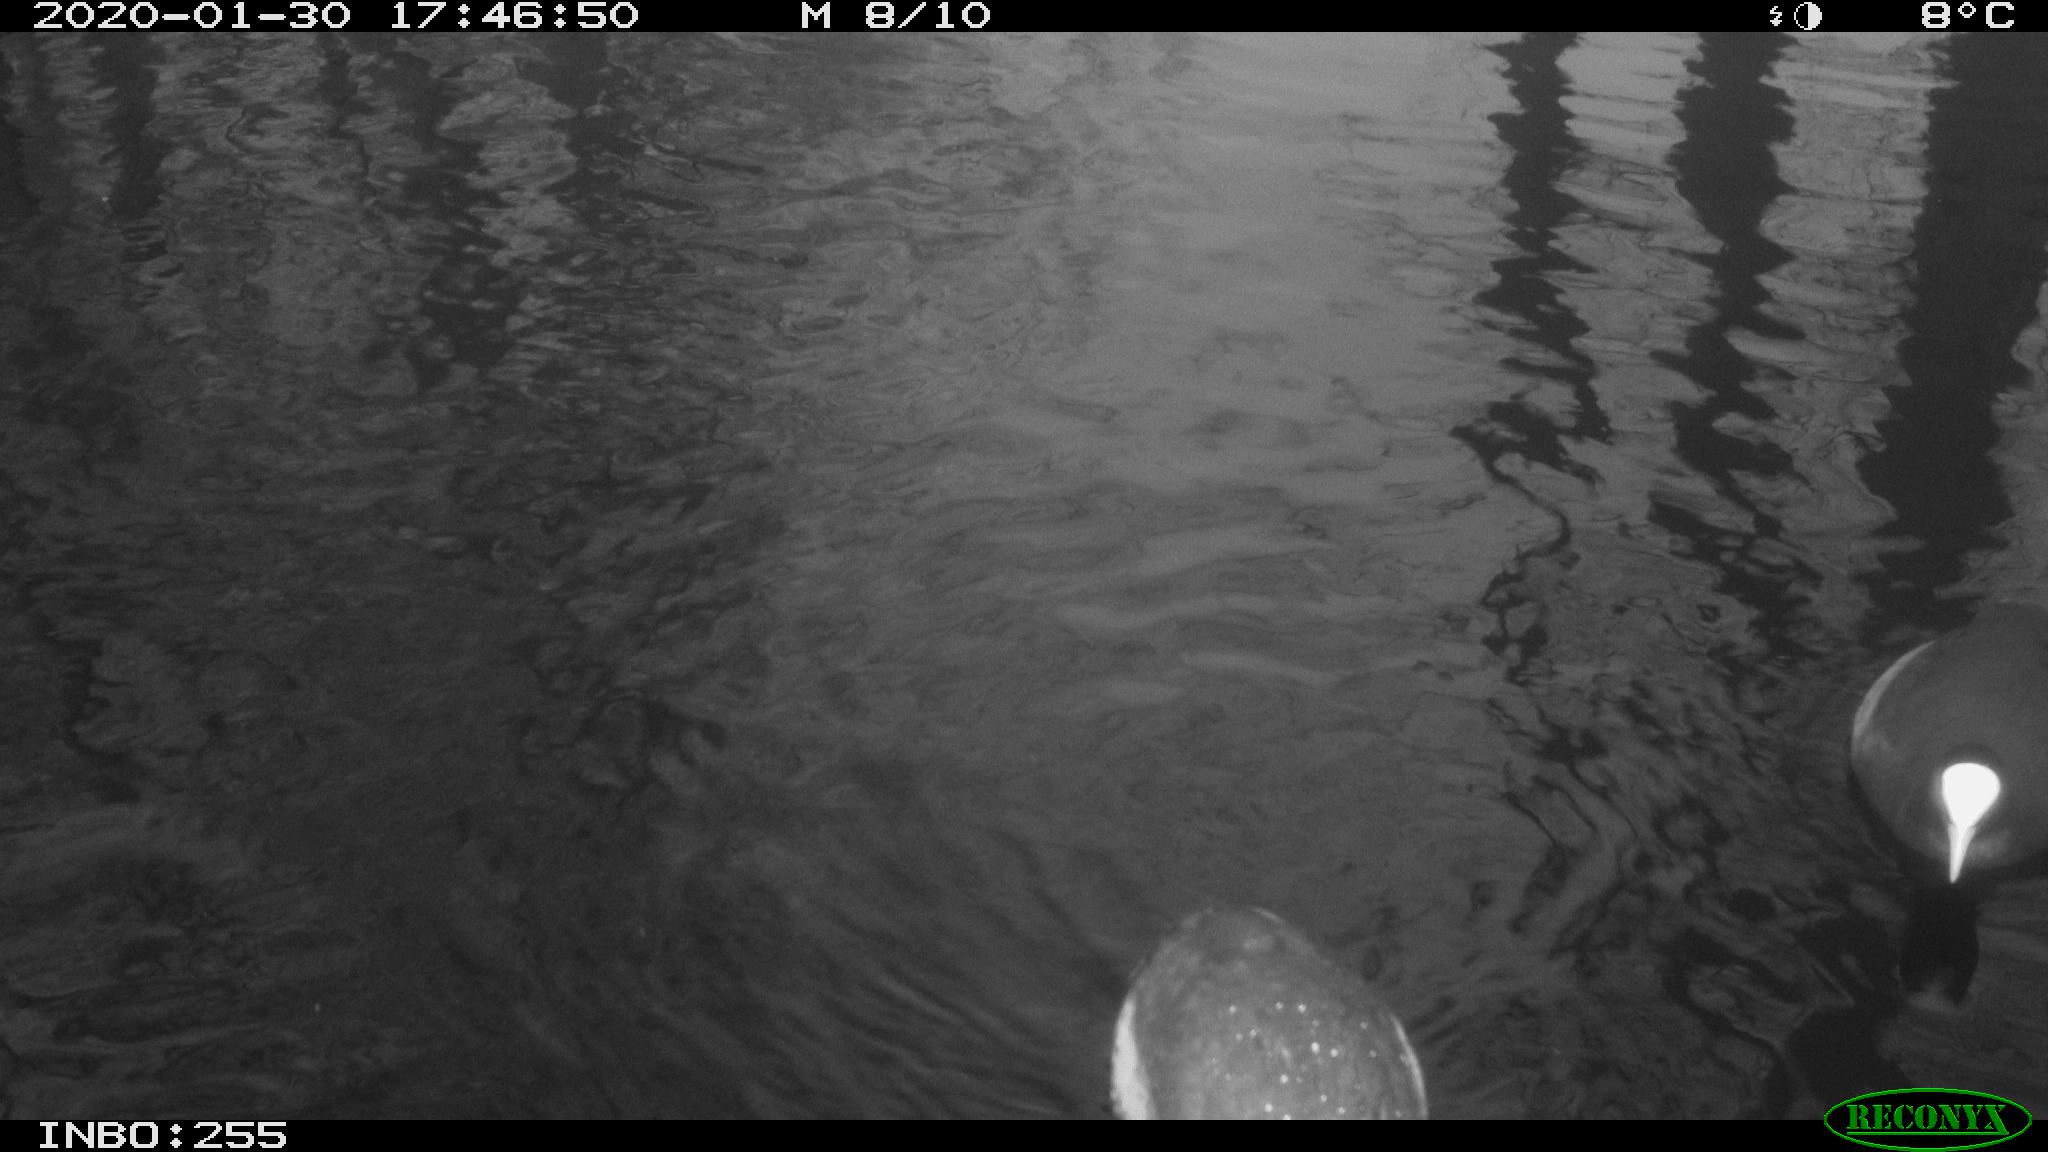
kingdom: Animalia
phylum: Chordata
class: Aves
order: Gruiformes
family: Rallidae
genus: Fulica
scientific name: Fulica atra
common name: Eurasian coot
